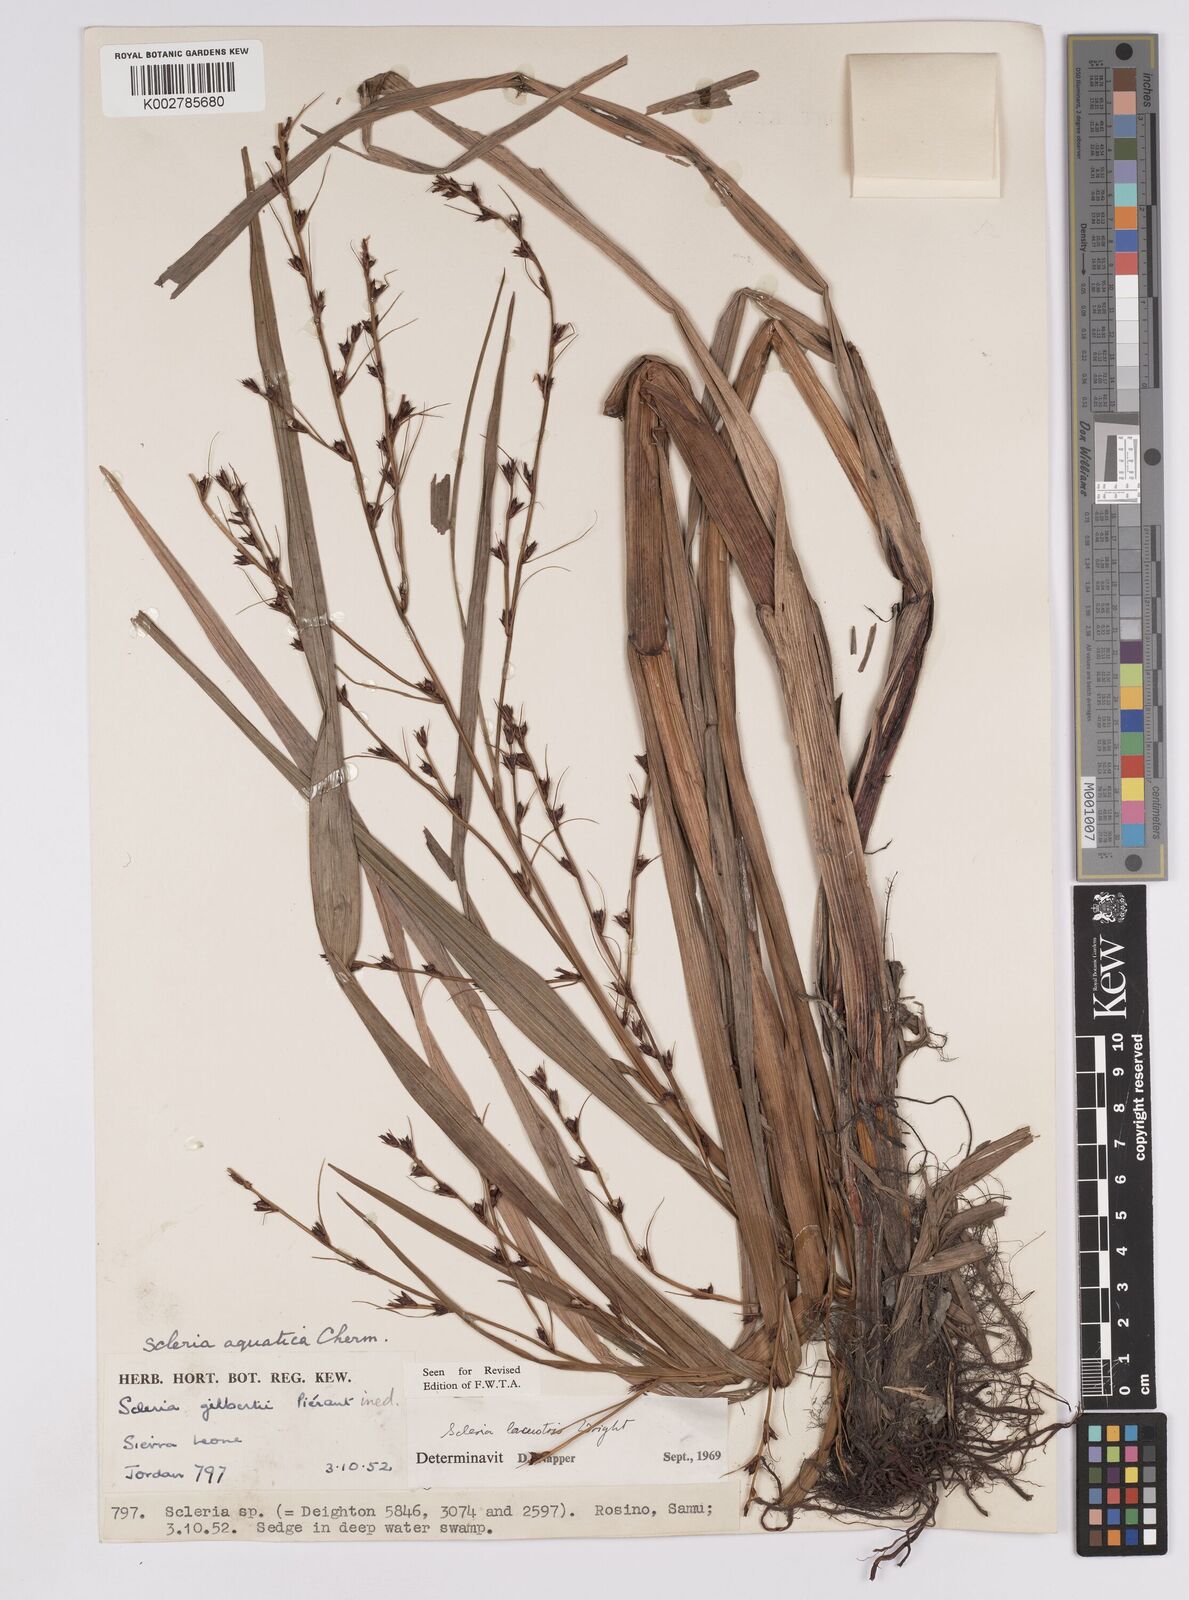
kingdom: Plantae
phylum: Tracheophyta
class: Liliopsida
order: Poales
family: Cyperaceae
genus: Scleria
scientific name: Scleria lacustris
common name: Lakeshore nutrush
